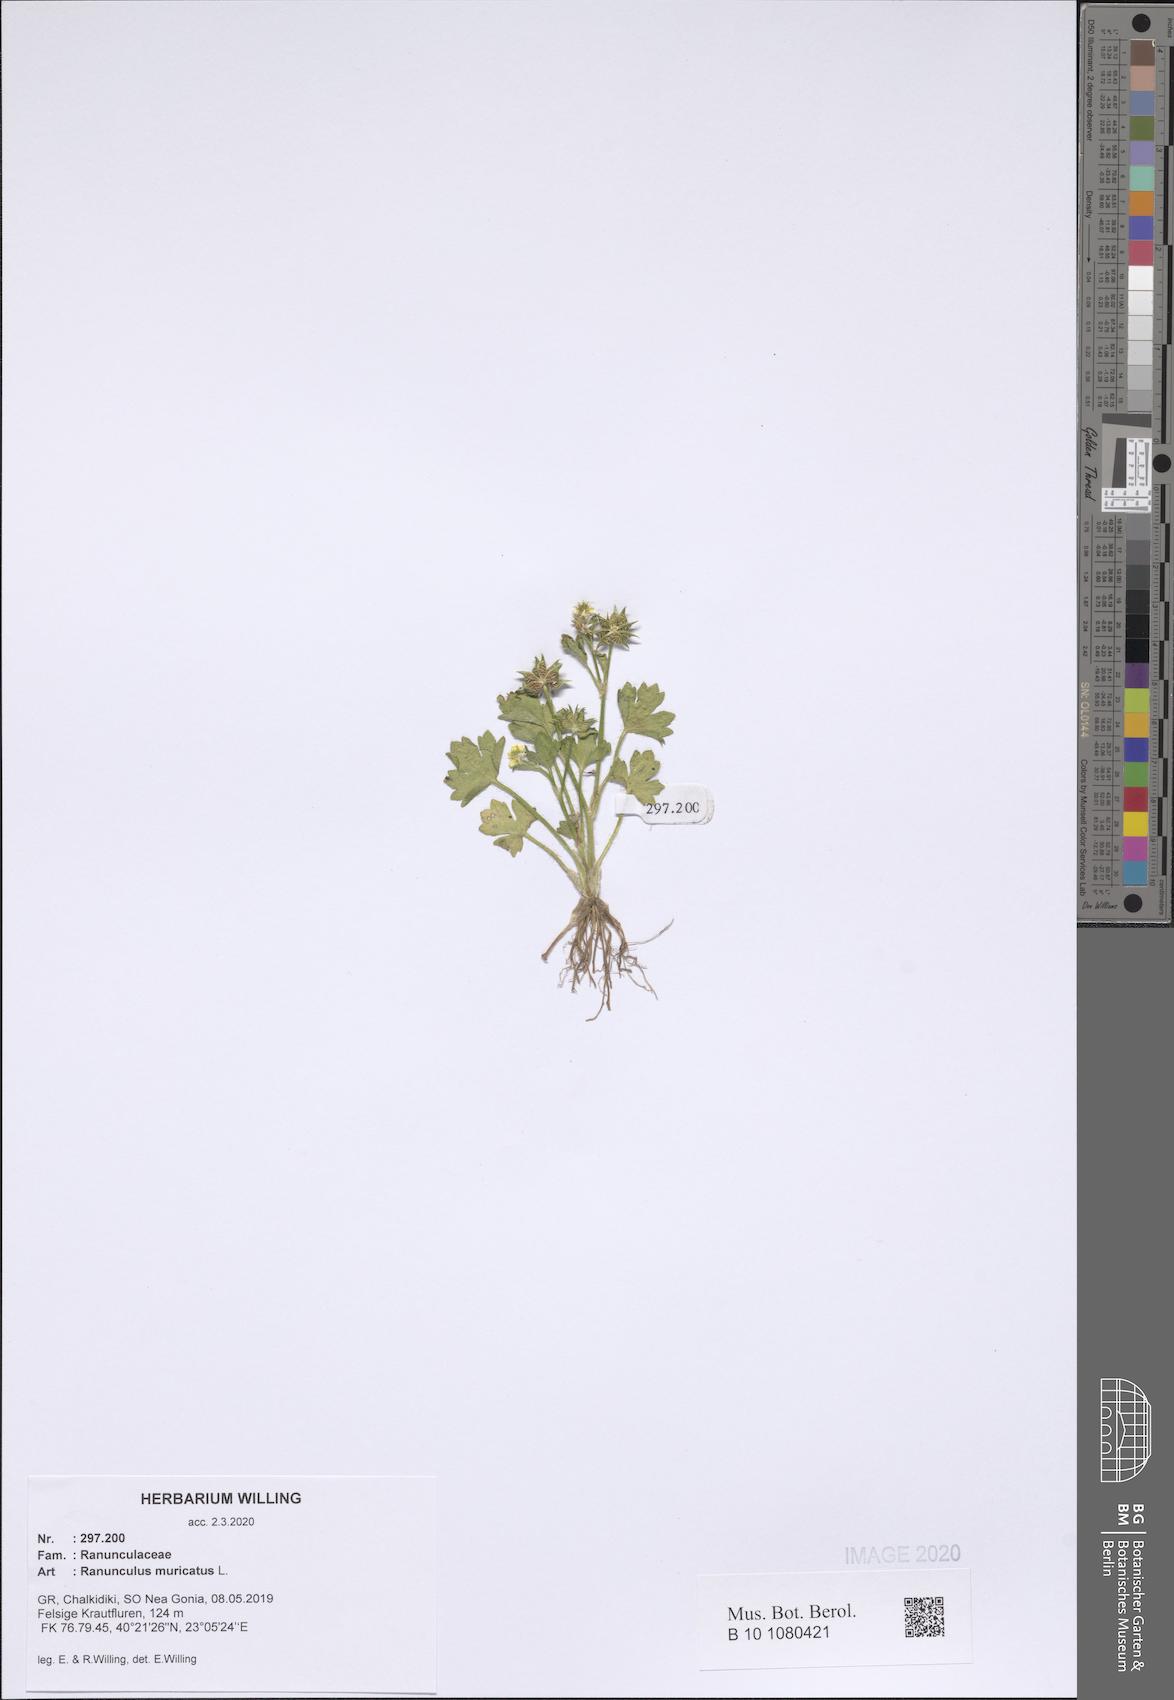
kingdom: Plantae
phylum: Tracheophyta
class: Magnoliopsida
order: Ranunculales
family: Ranunculaceae
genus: Ranunculus
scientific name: Ranunculus muricatus
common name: Rough-fruited buttercup
